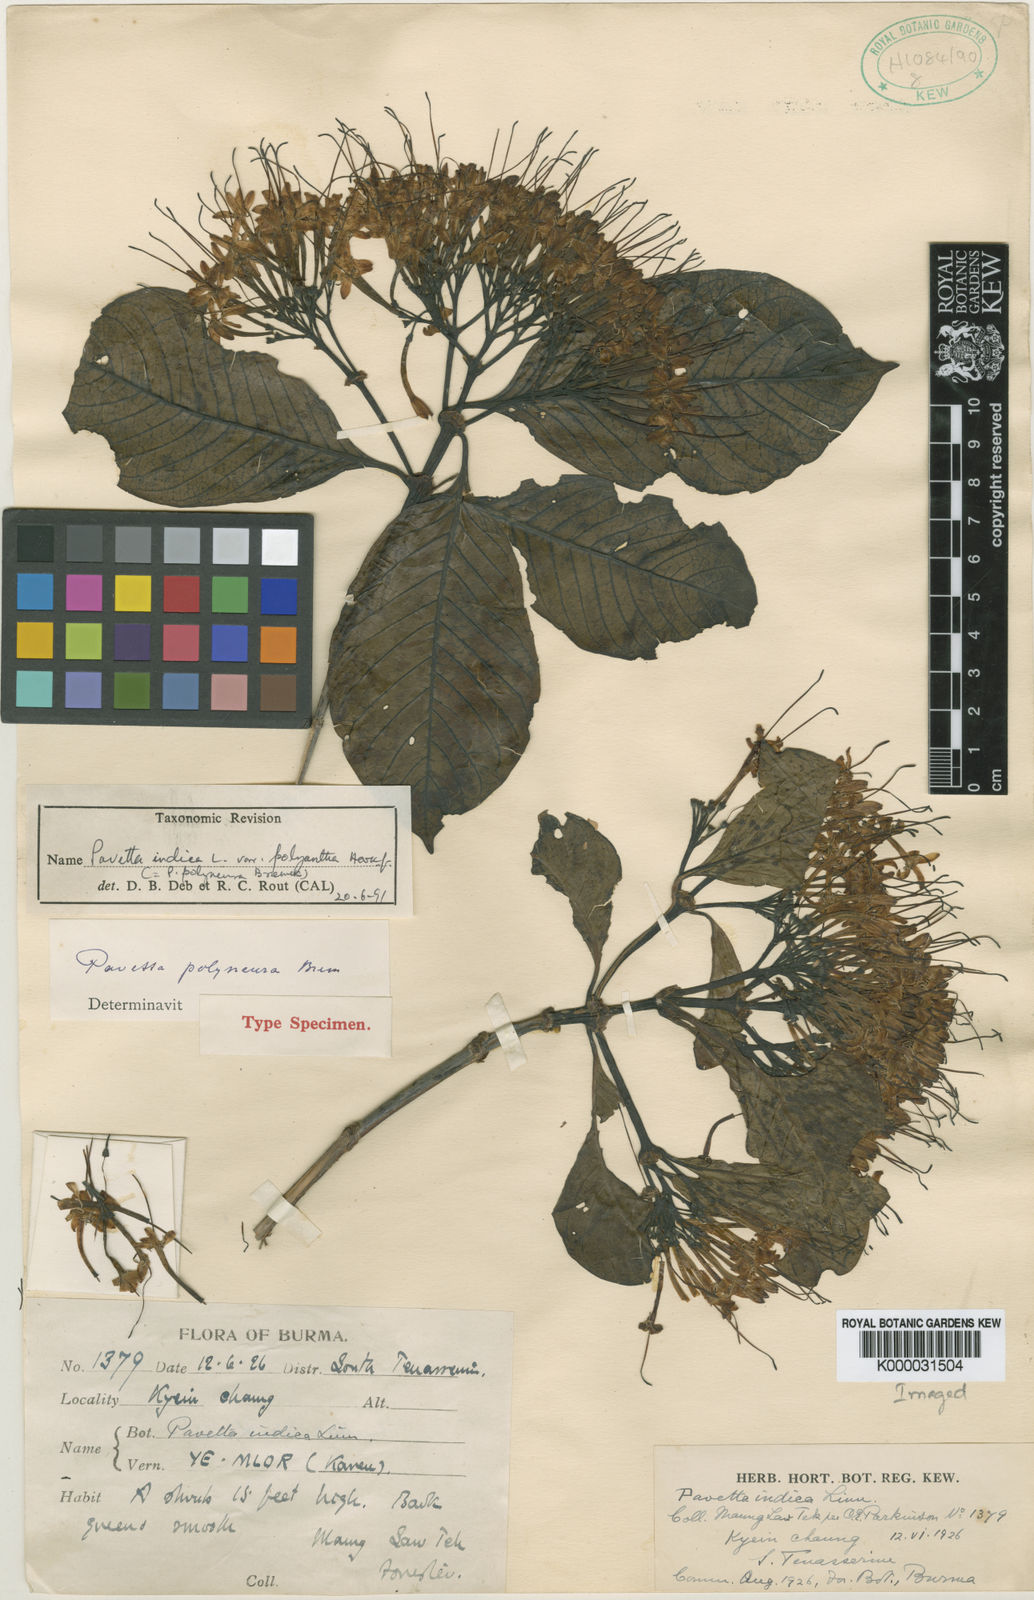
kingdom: Plantae
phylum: Tracheophyta
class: Magnoliopsida
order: Gentianales
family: Rubiaceae
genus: Pavetta
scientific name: Pavetta indica
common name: Indian pavetta
